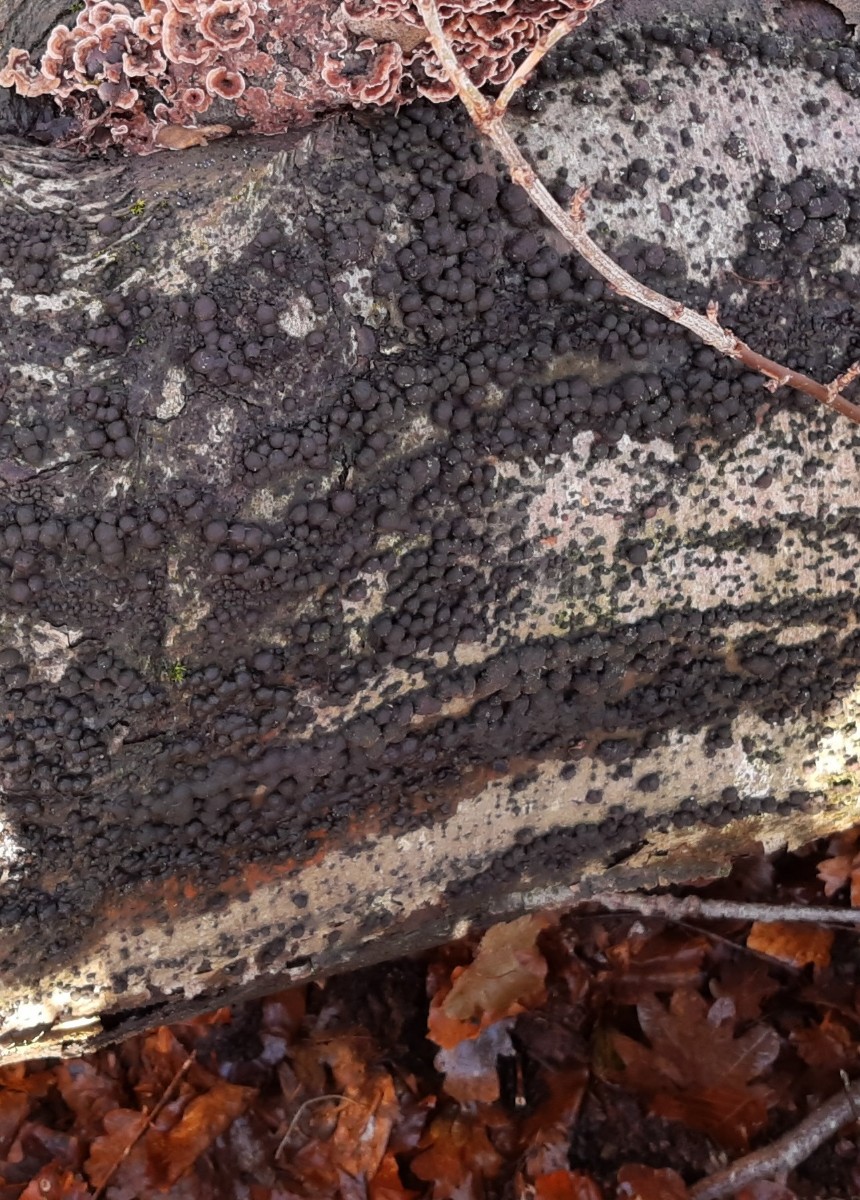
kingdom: Fungi
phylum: Ascomycota
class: Sordariomycetes
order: Xylariales
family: Hypoxylaceae
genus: Hypoxylon
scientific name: Hypoxylon fragiforme
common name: kuljordbær
